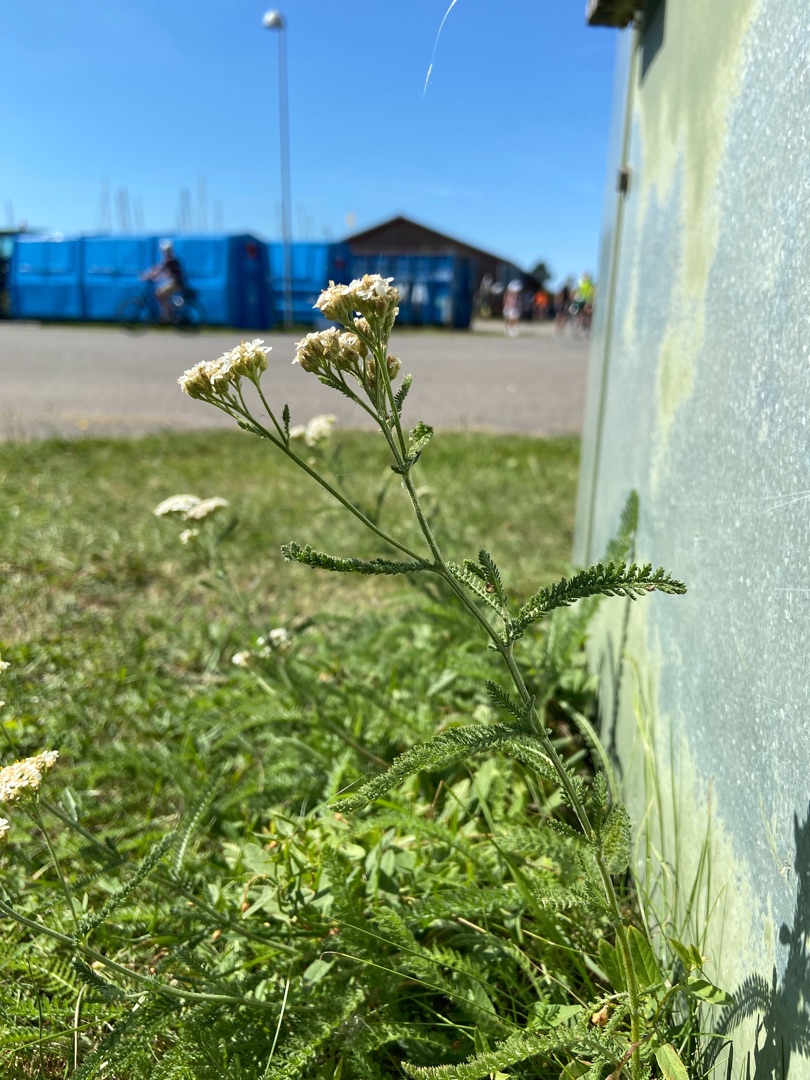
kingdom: Plantae
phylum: Tracheophyta
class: Magnoliopsida
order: Asterales
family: Asteraceae
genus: Achillea
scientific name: Achillea millefolium
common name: Almindelig røllike
